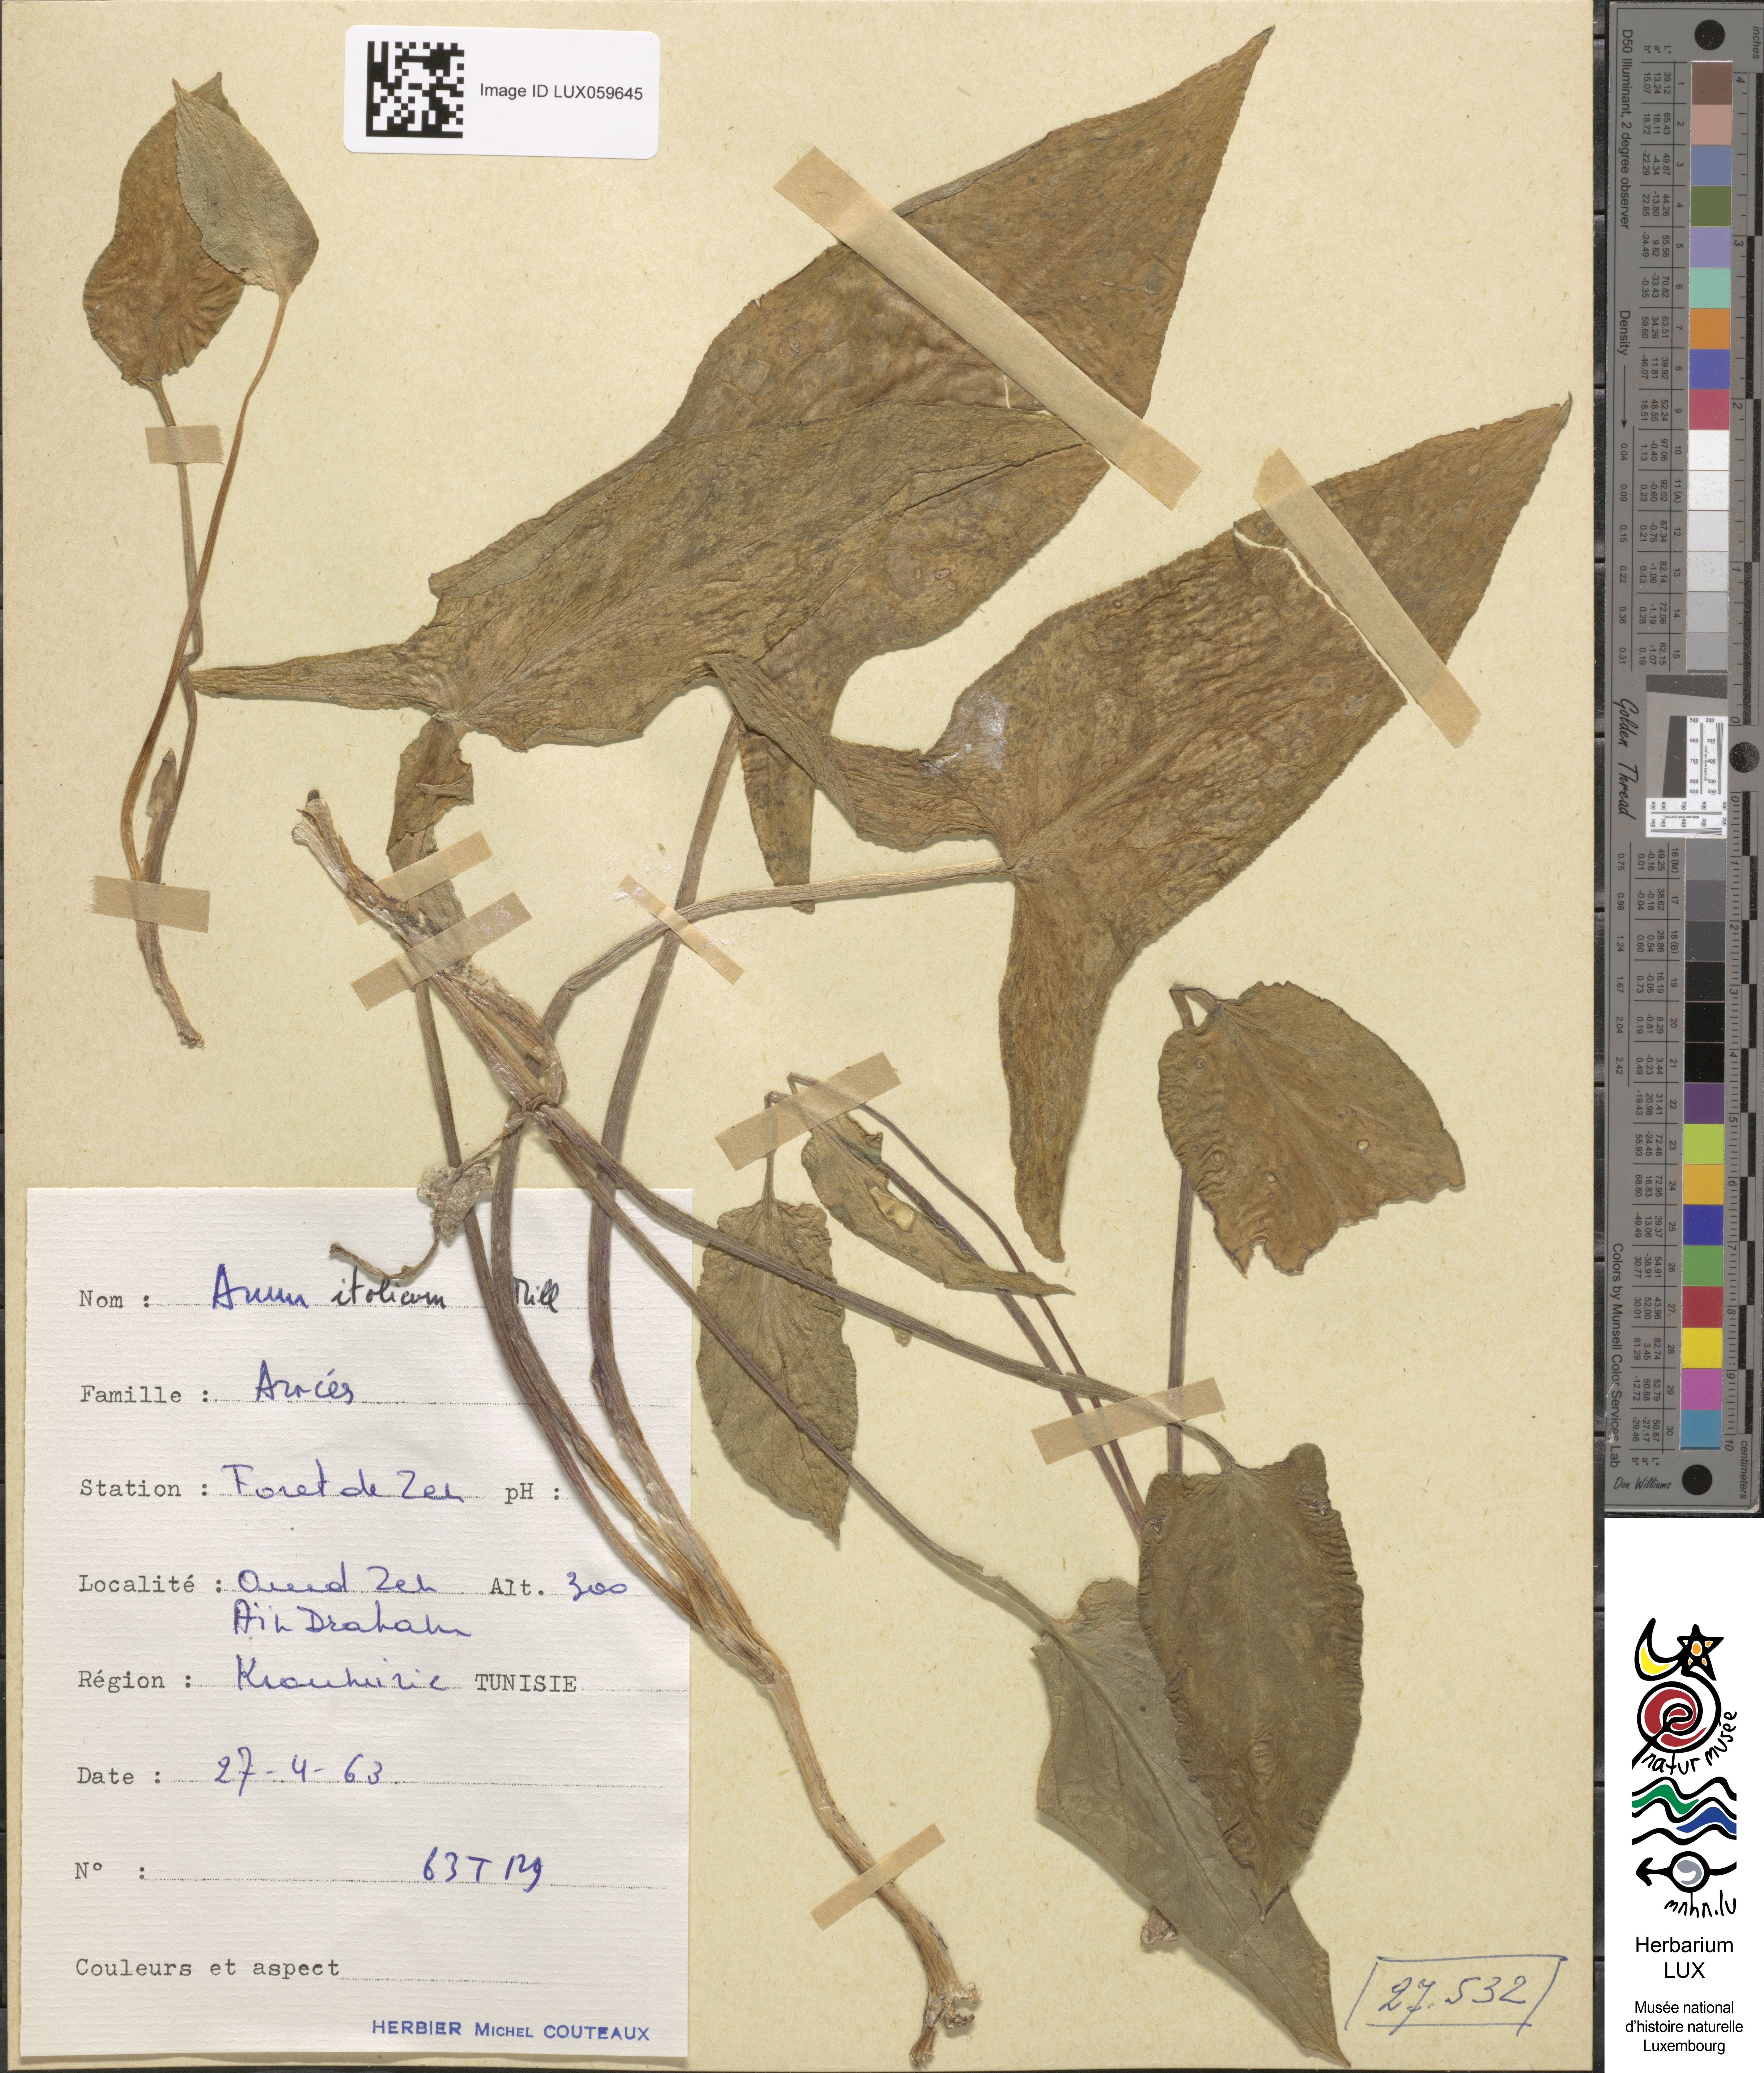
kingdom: Plantae
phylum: Tracheophyta
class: Liliopsida
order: Alismatales
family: Araceae
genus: Arum
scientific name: Arum italicum
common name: Italian lords-and-ladies
